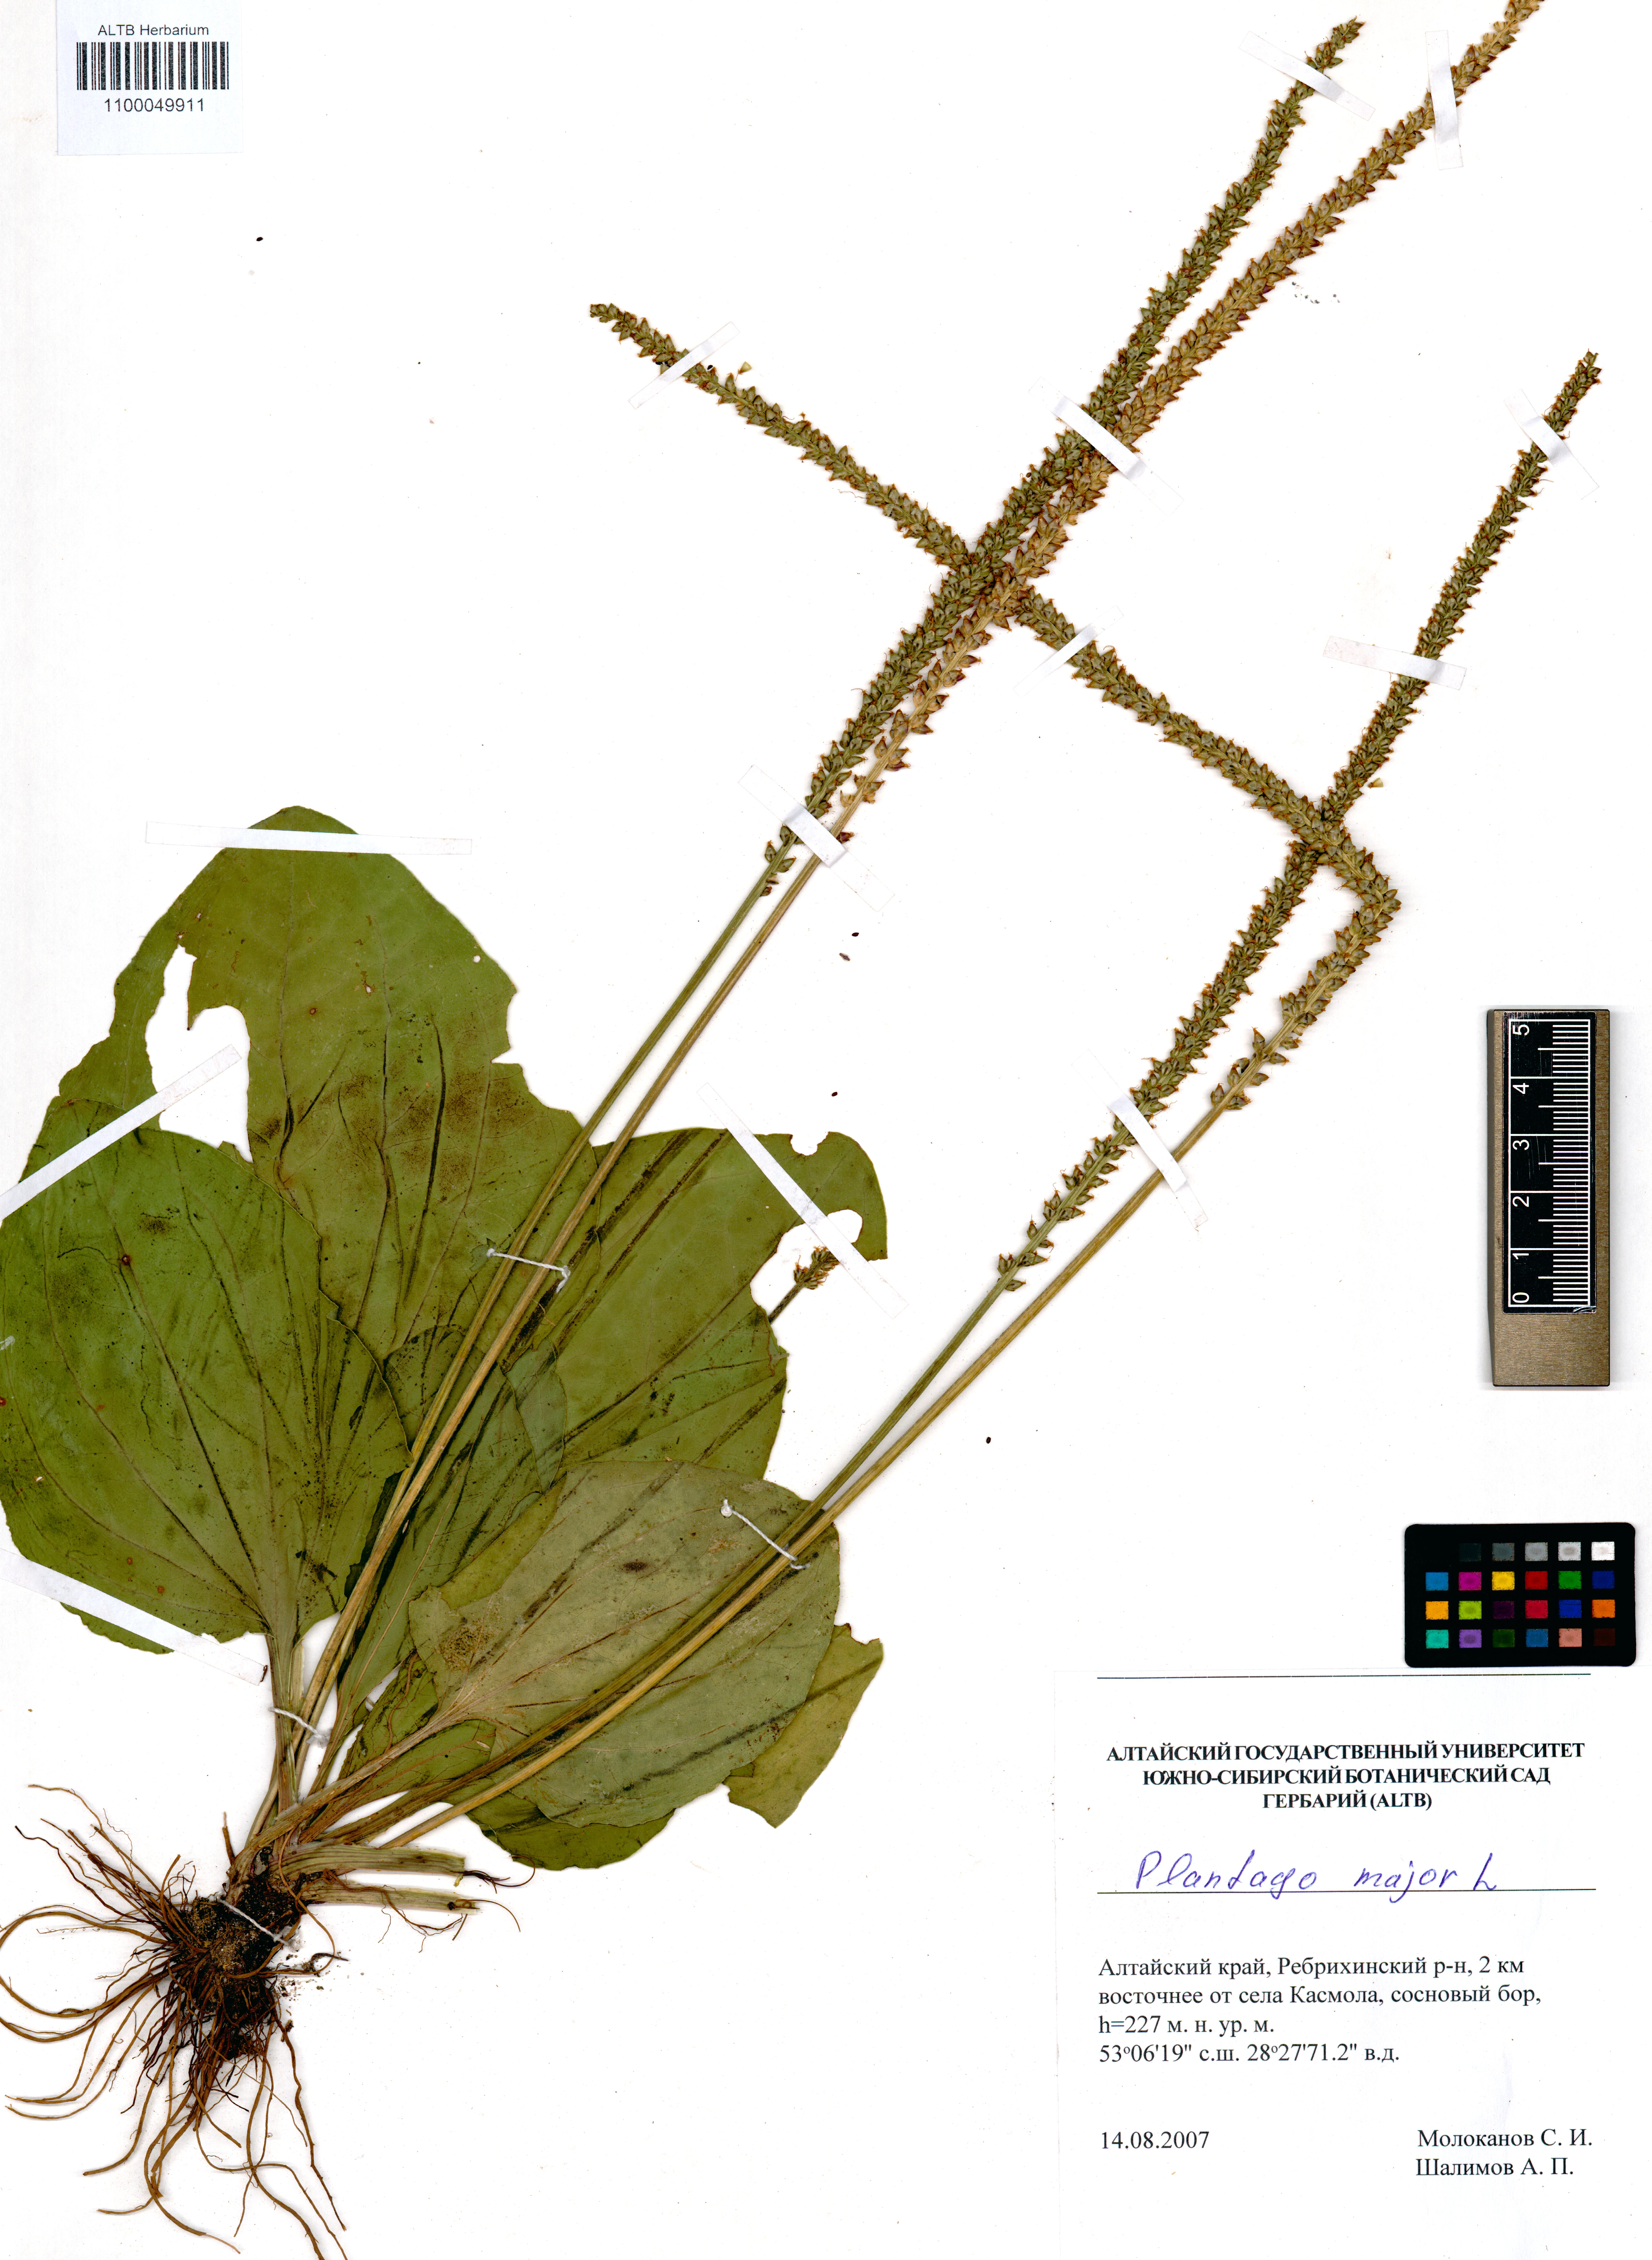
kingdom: Plantae
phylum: Tracheophyta
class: Magnoliopsida
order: Lamiales
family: Plantaginaceae
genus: Plantago
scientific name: Plantago major
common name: Common plantain
